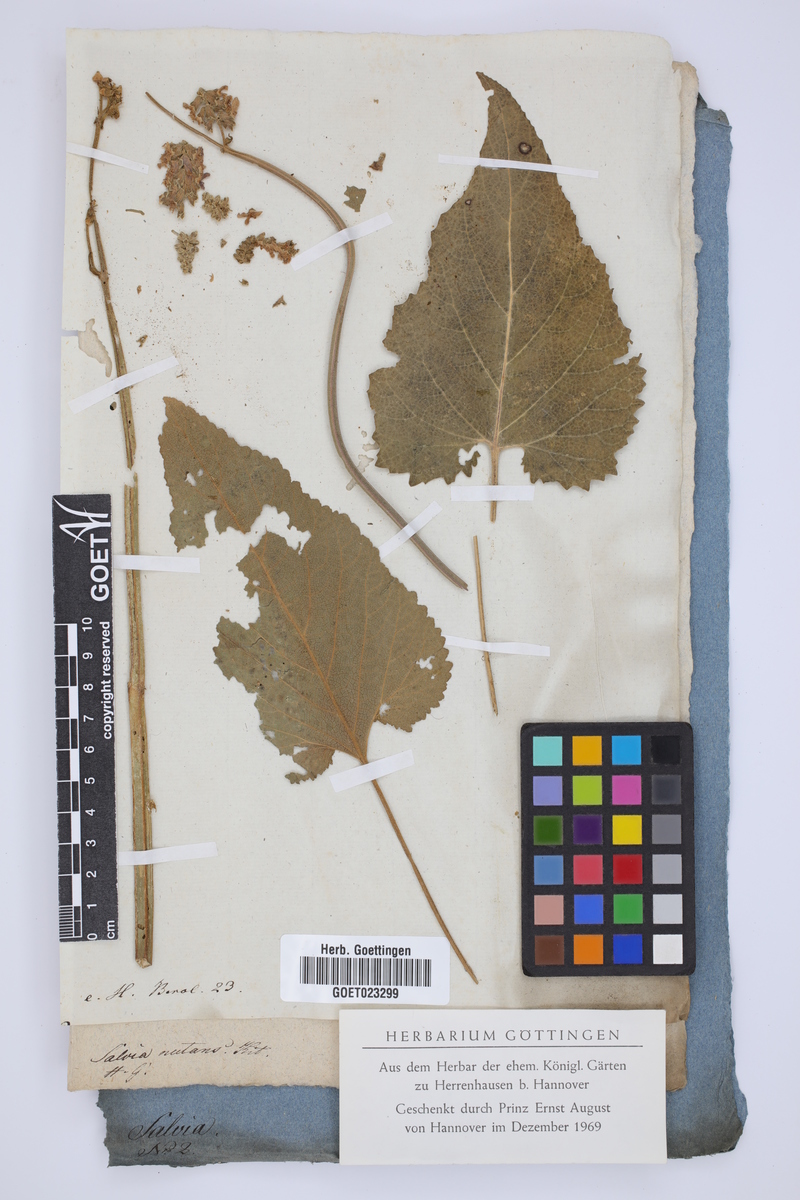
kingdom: Plantae
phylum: Tracheophyta
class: Magnoliopsida
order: Lamiales
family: Lamiaceae
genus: Salvia
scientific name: Salvia nutans
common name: Nodding sage
